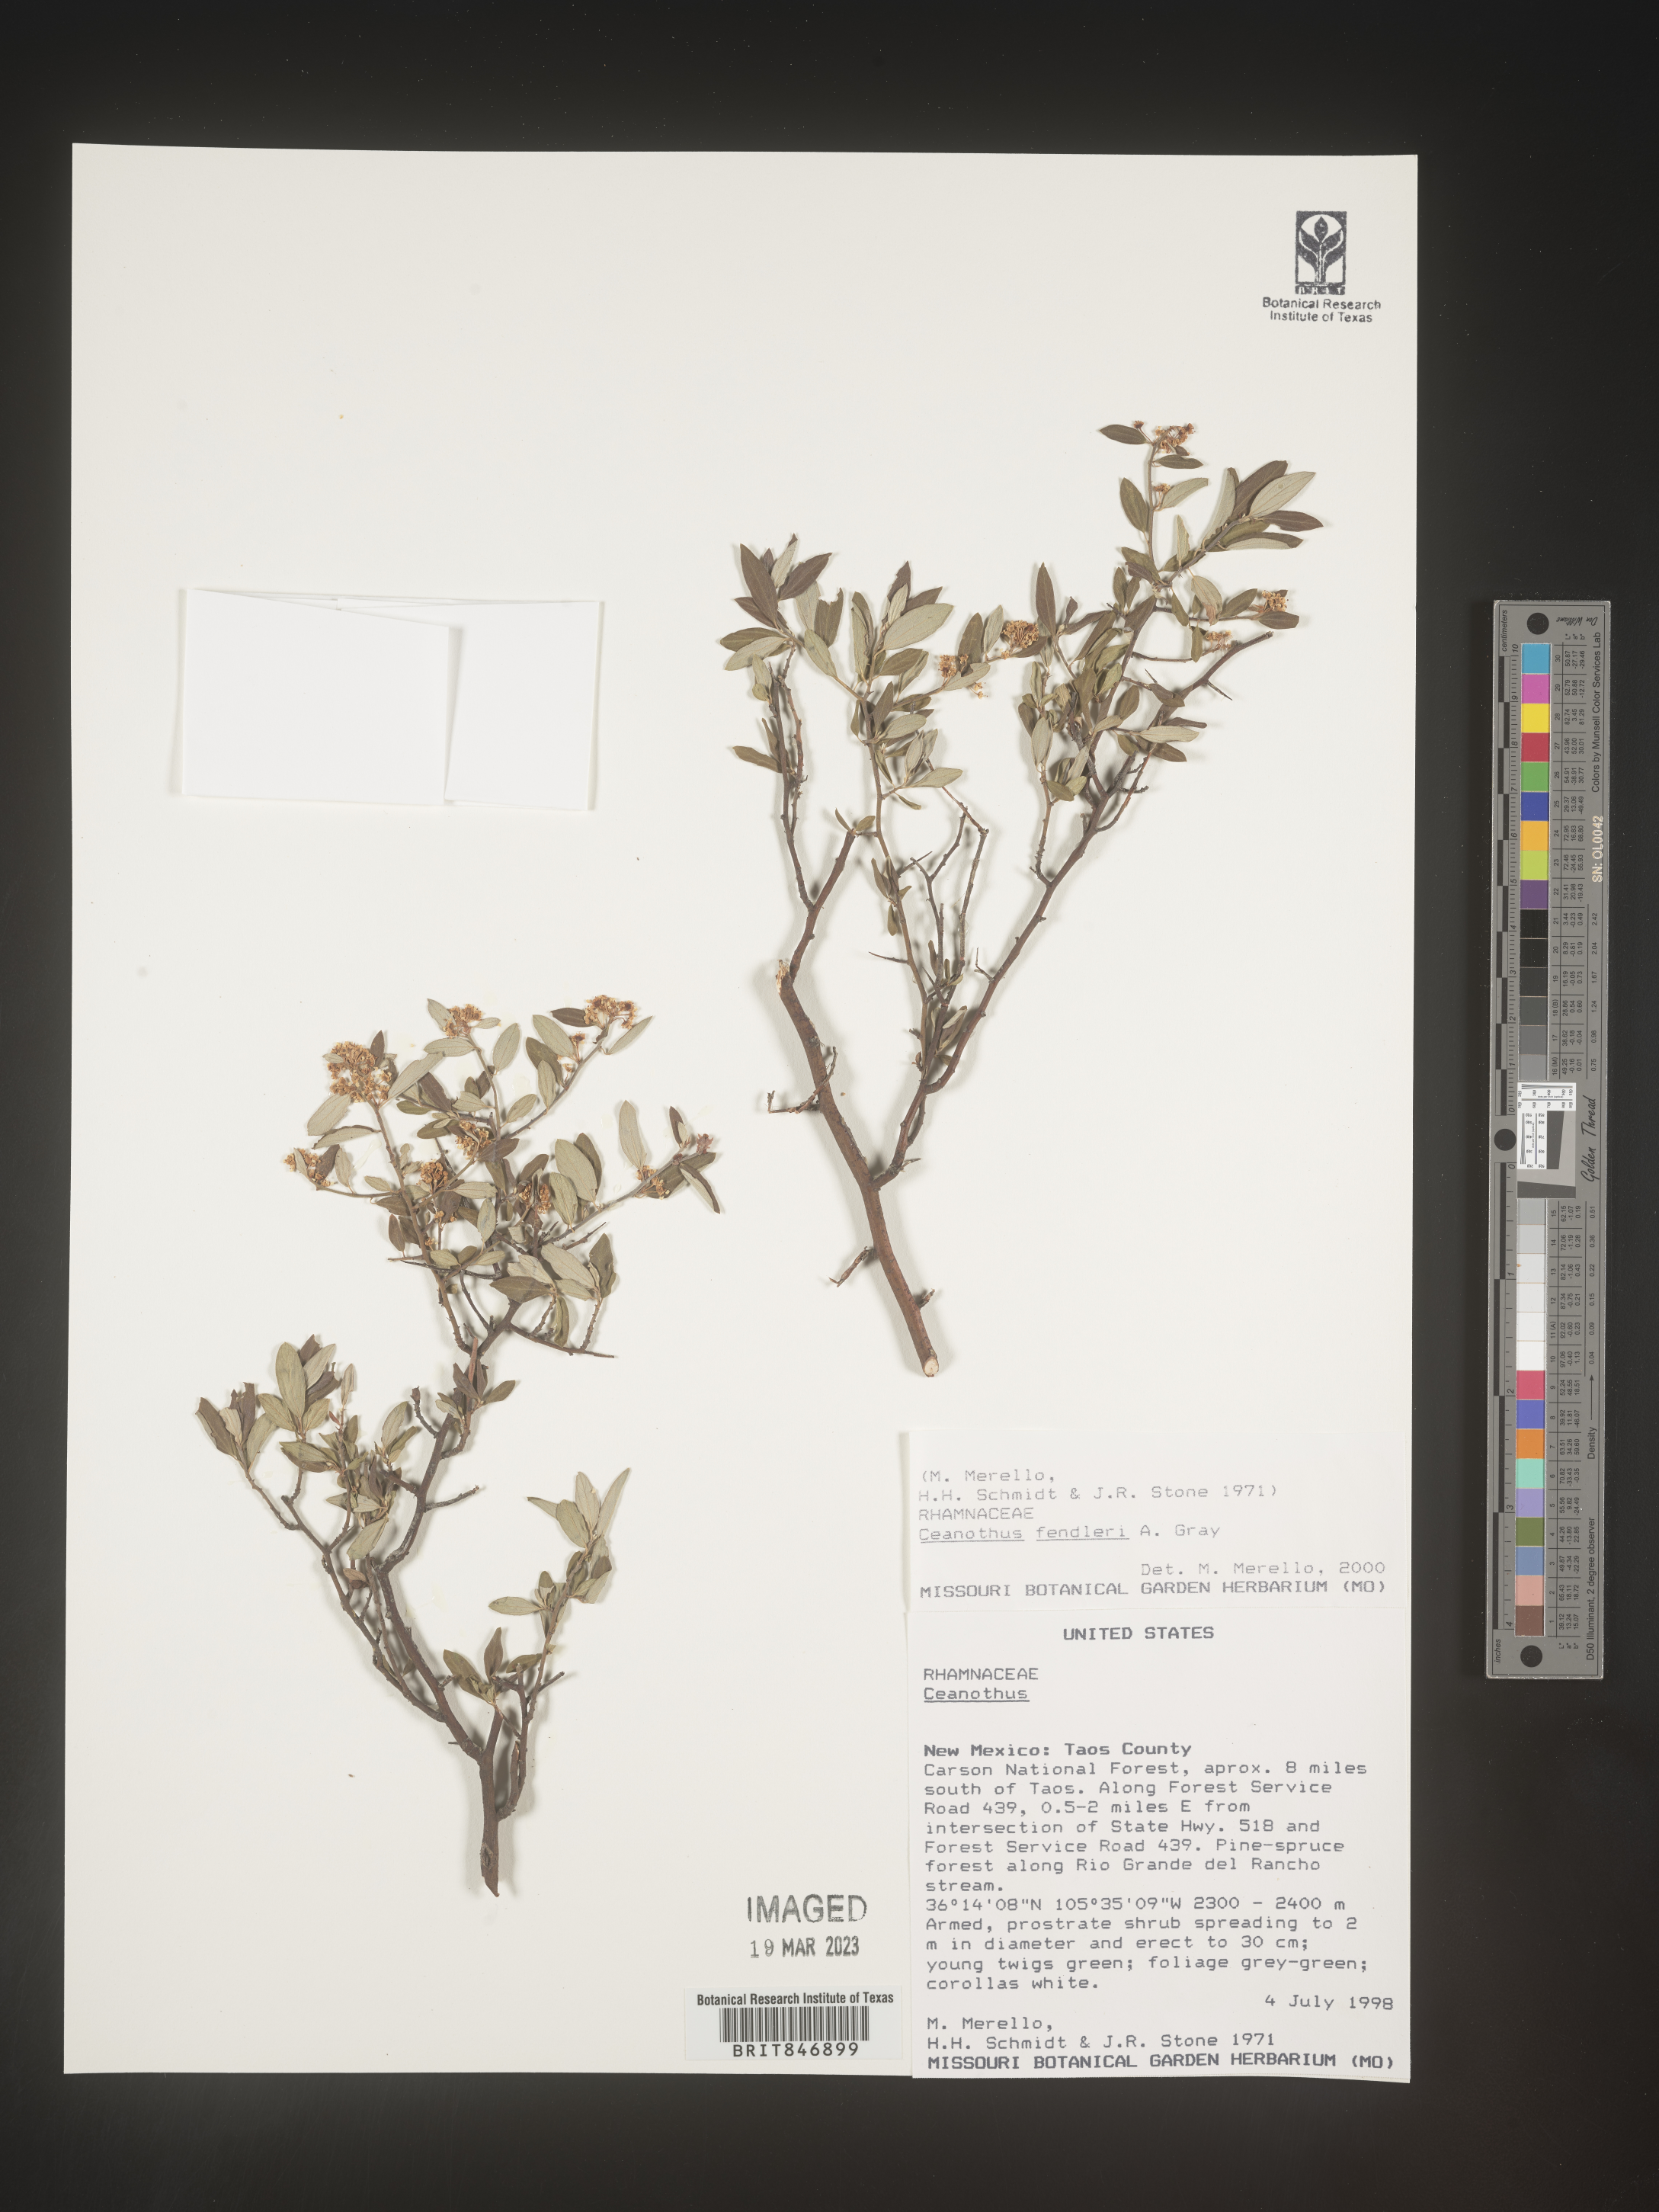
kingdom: Plantae
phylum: Tracheophyta
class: Magnoliopsida
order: Rosales
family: Rhamnaceae
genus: Ceanothus
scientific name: Ceanothus fendleri
